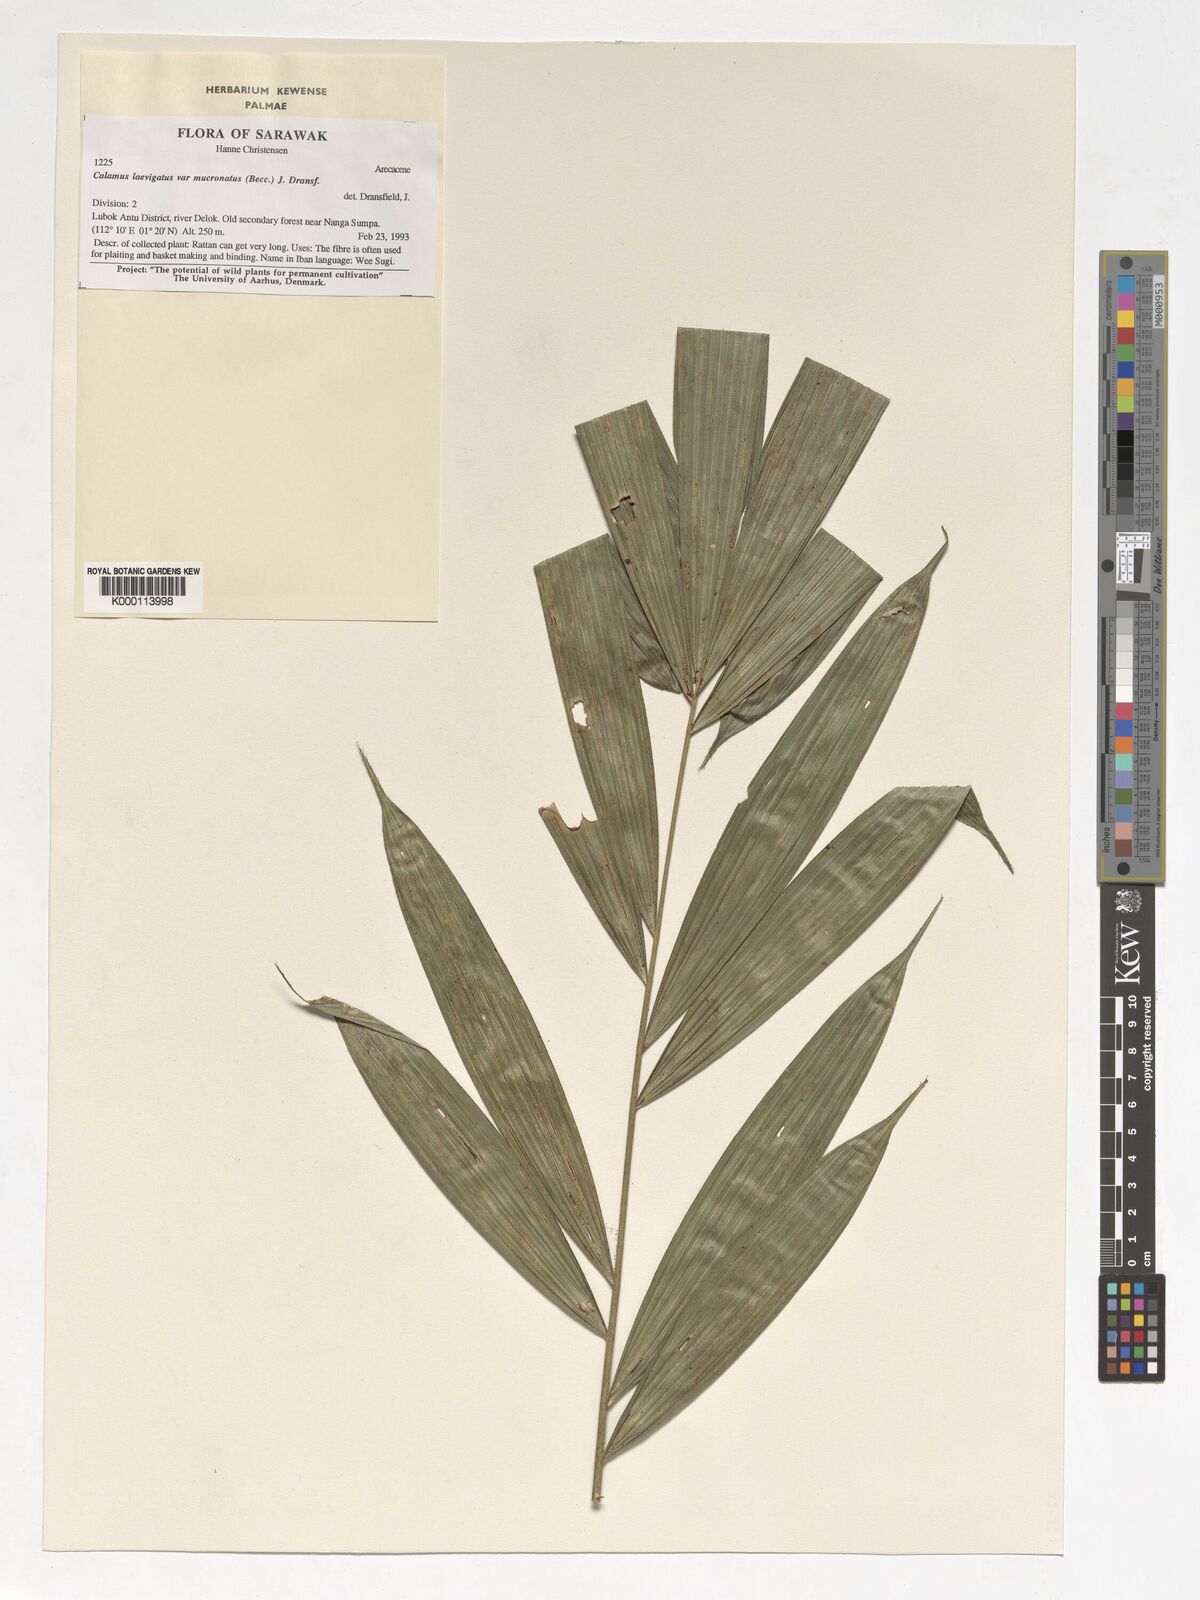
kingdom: Plantae
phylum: Tracheophyta
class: Liliopsida
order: Arecales
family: Arecaceae
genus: Calamus
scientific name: Calamus plicatus
